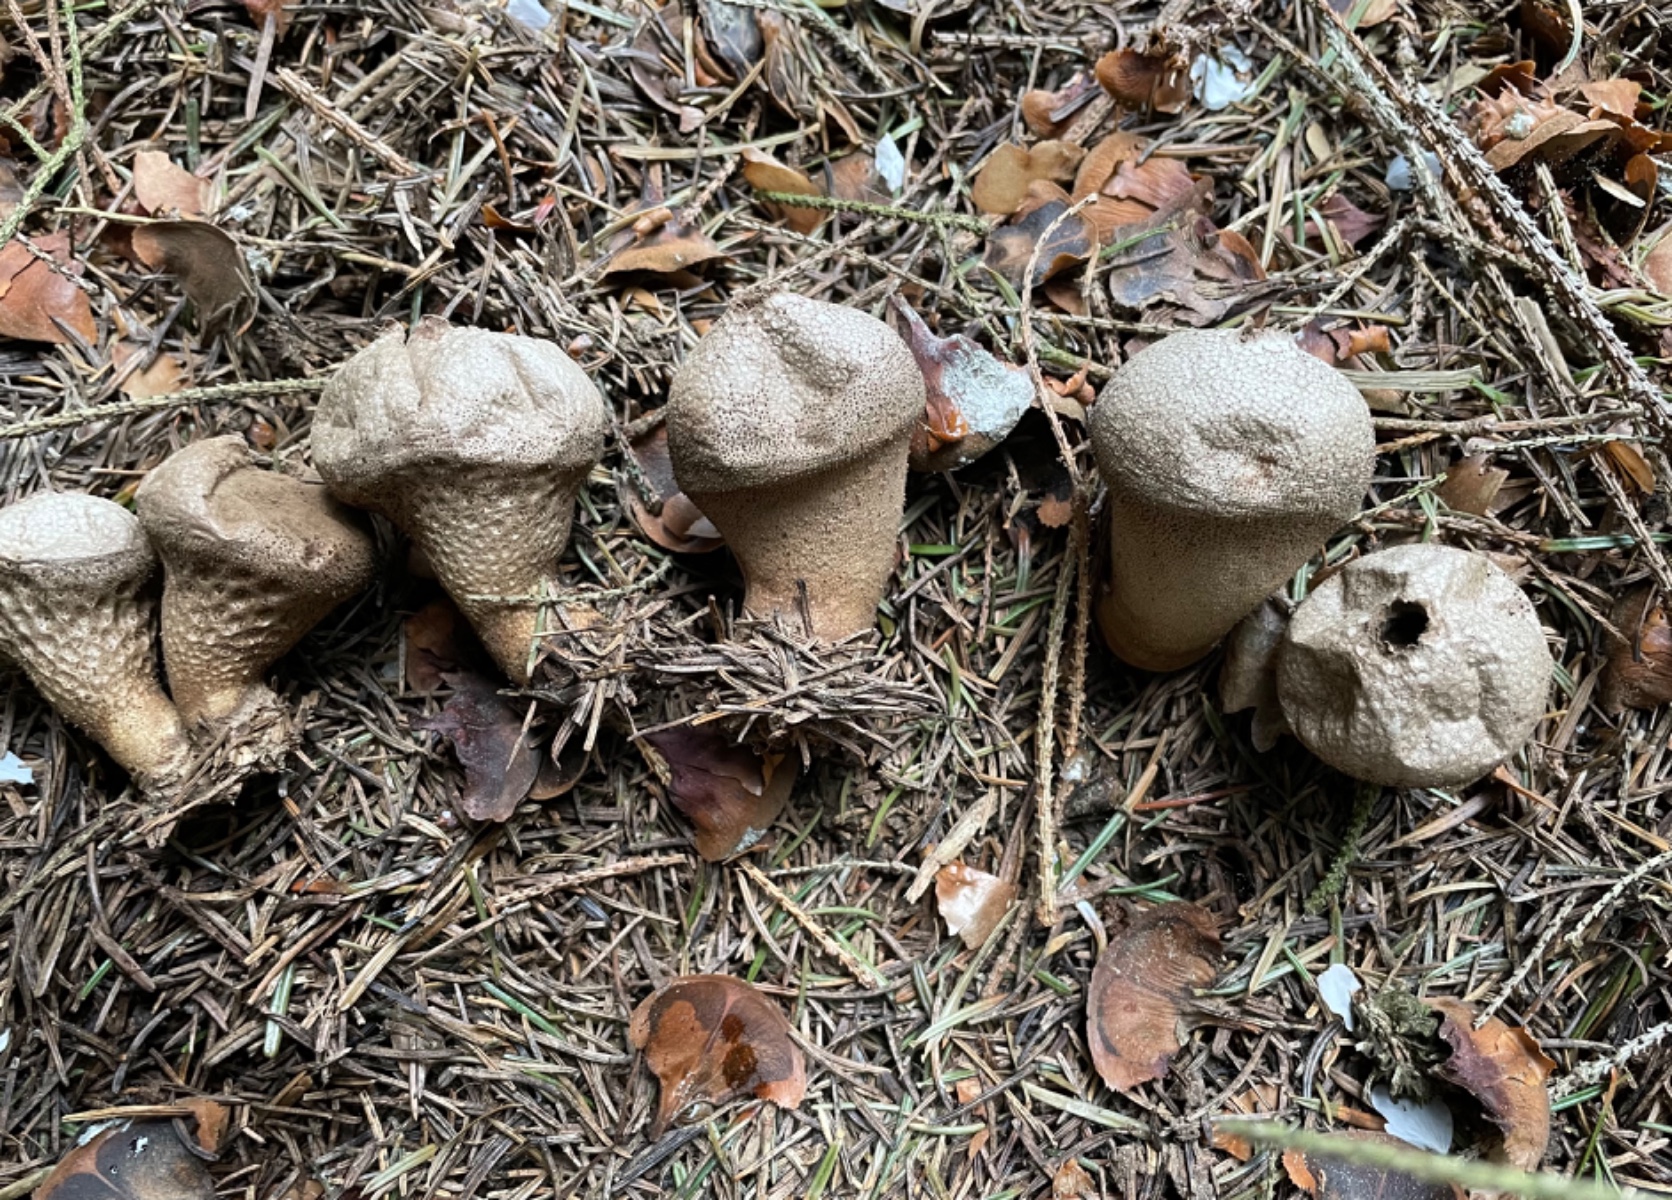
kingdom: Fungi
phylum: Basidiomycota
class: Agaricomycetes
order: Agaricales
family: Lycoperdaceae
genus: Lycoperdon
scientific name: Lycoperdon perlatum
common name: krystal-støvbold
